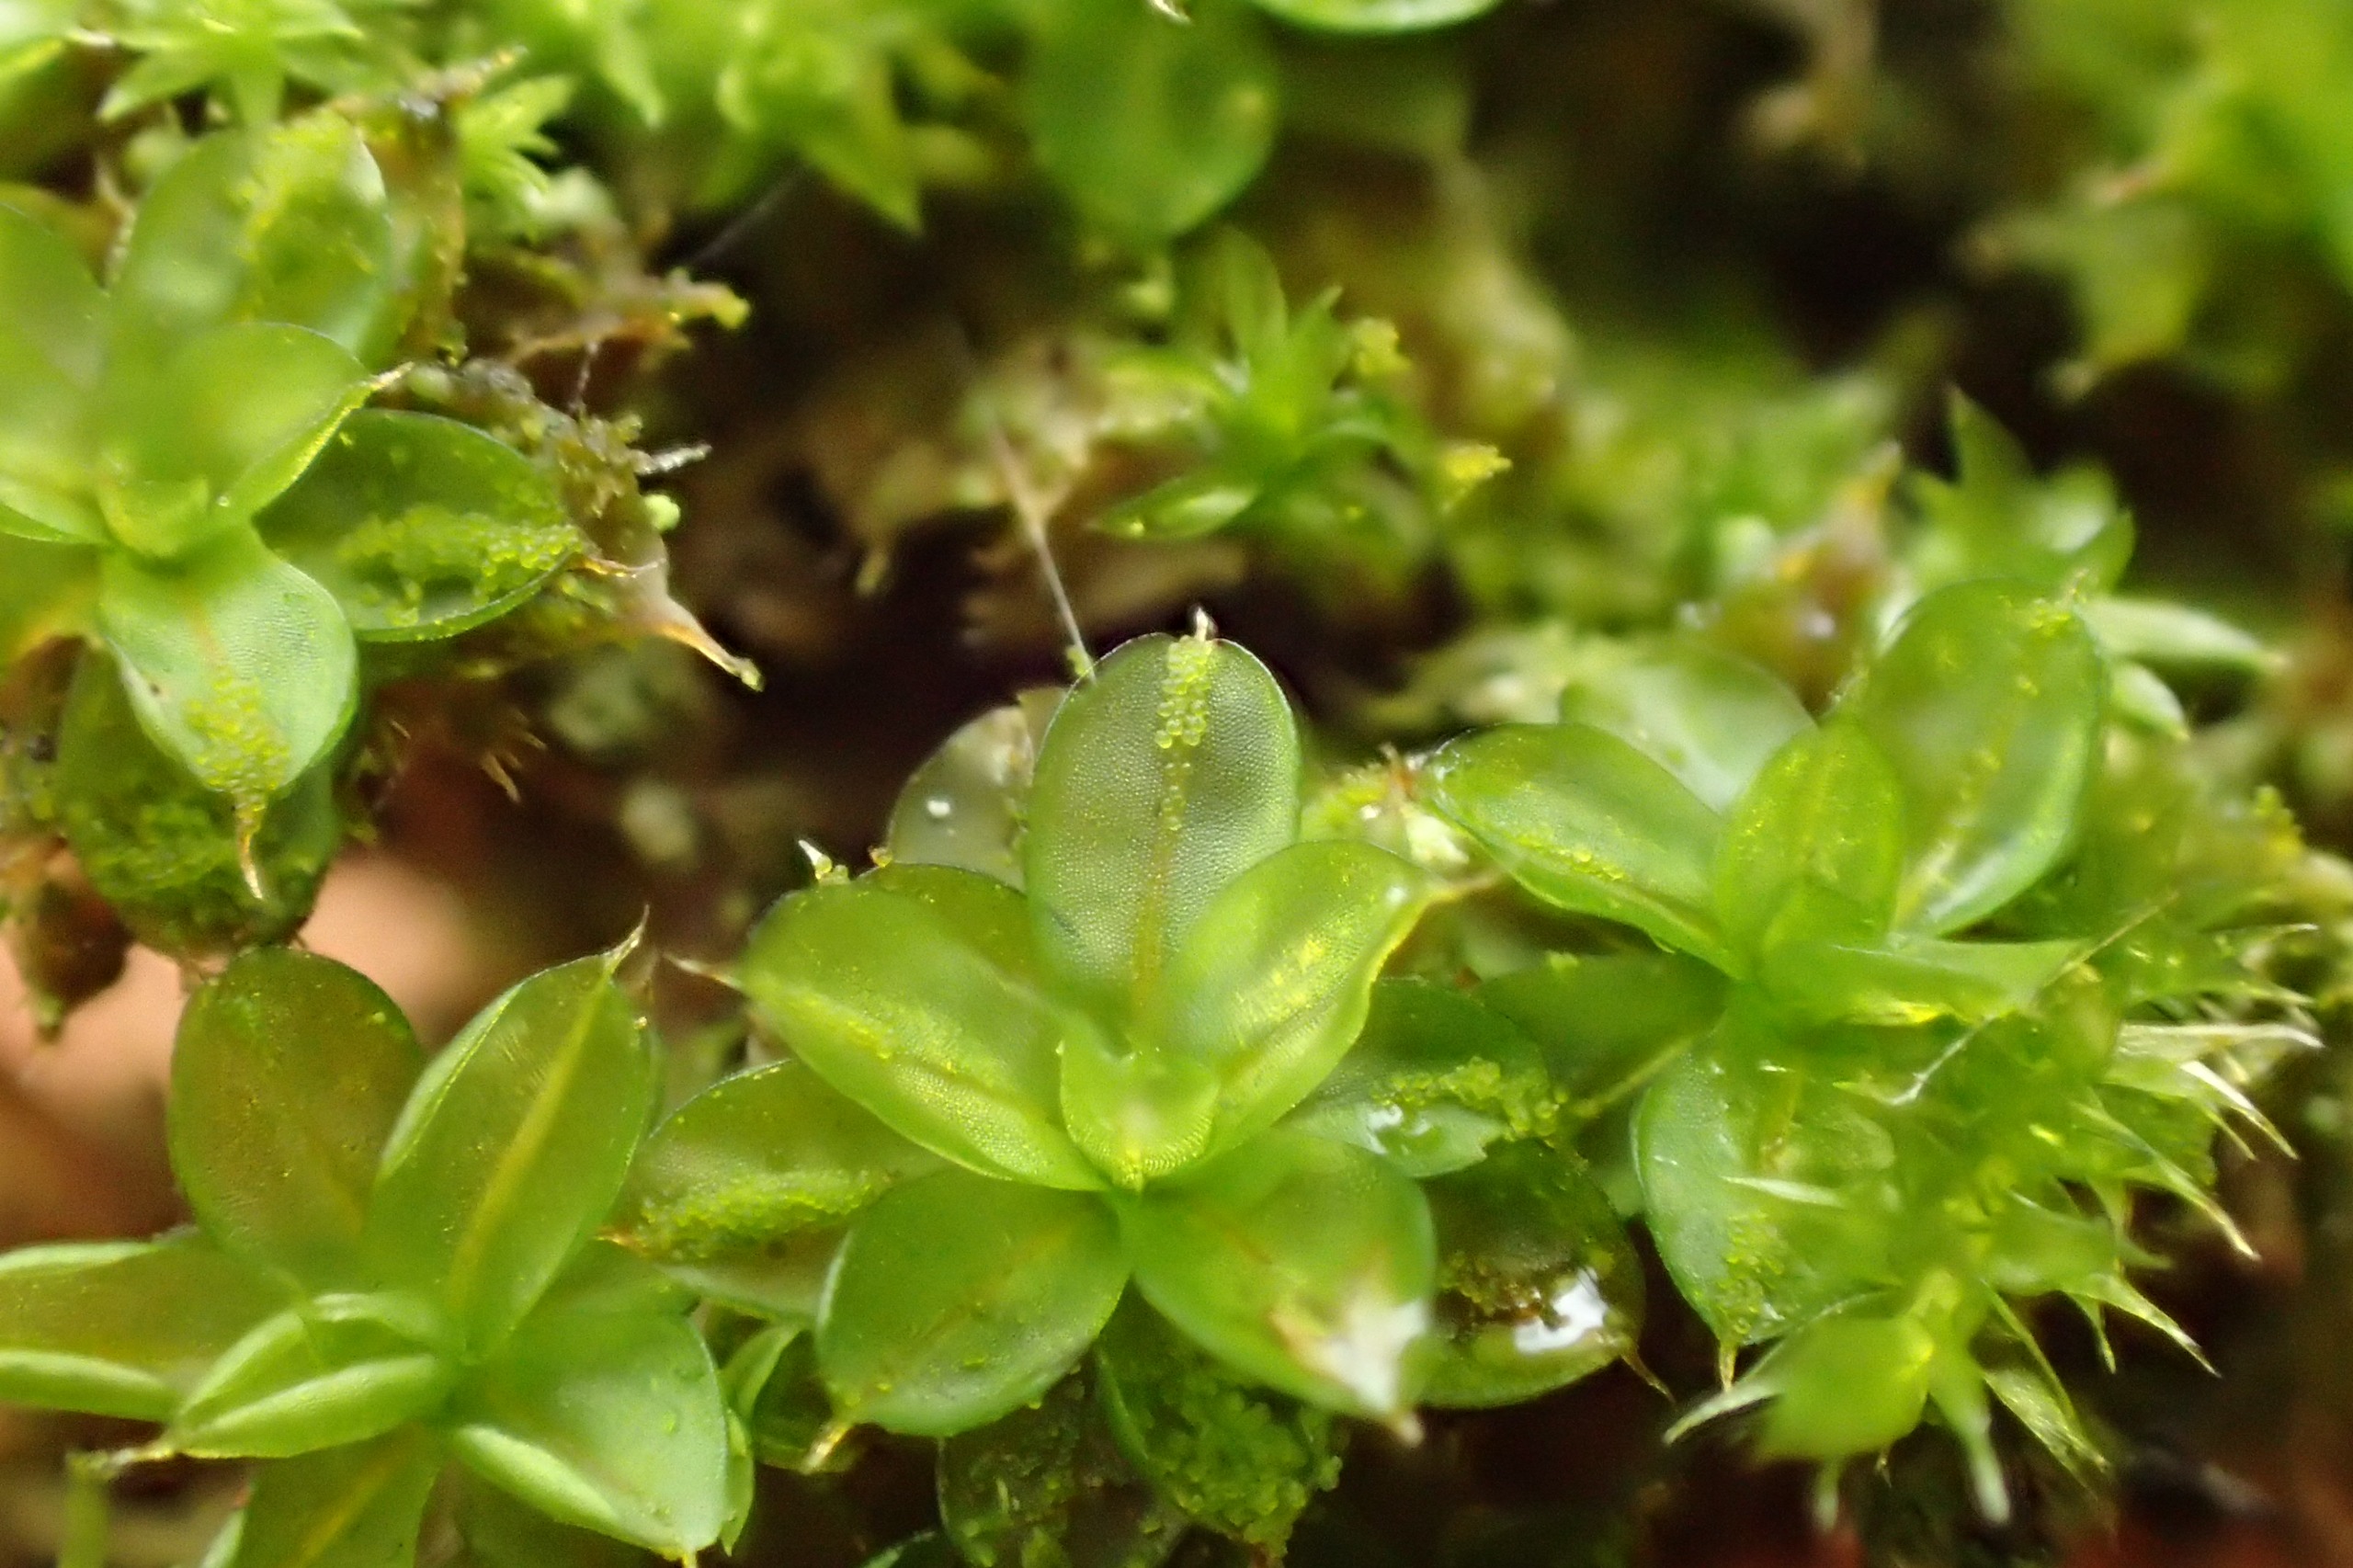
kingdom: Plantae
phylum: Bryophyta
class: Bryopsida
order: Pottiales
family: Pottiaceae
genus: Syntrichia
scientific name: Syntrichia papillosa
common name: Bark-hårstjerne
